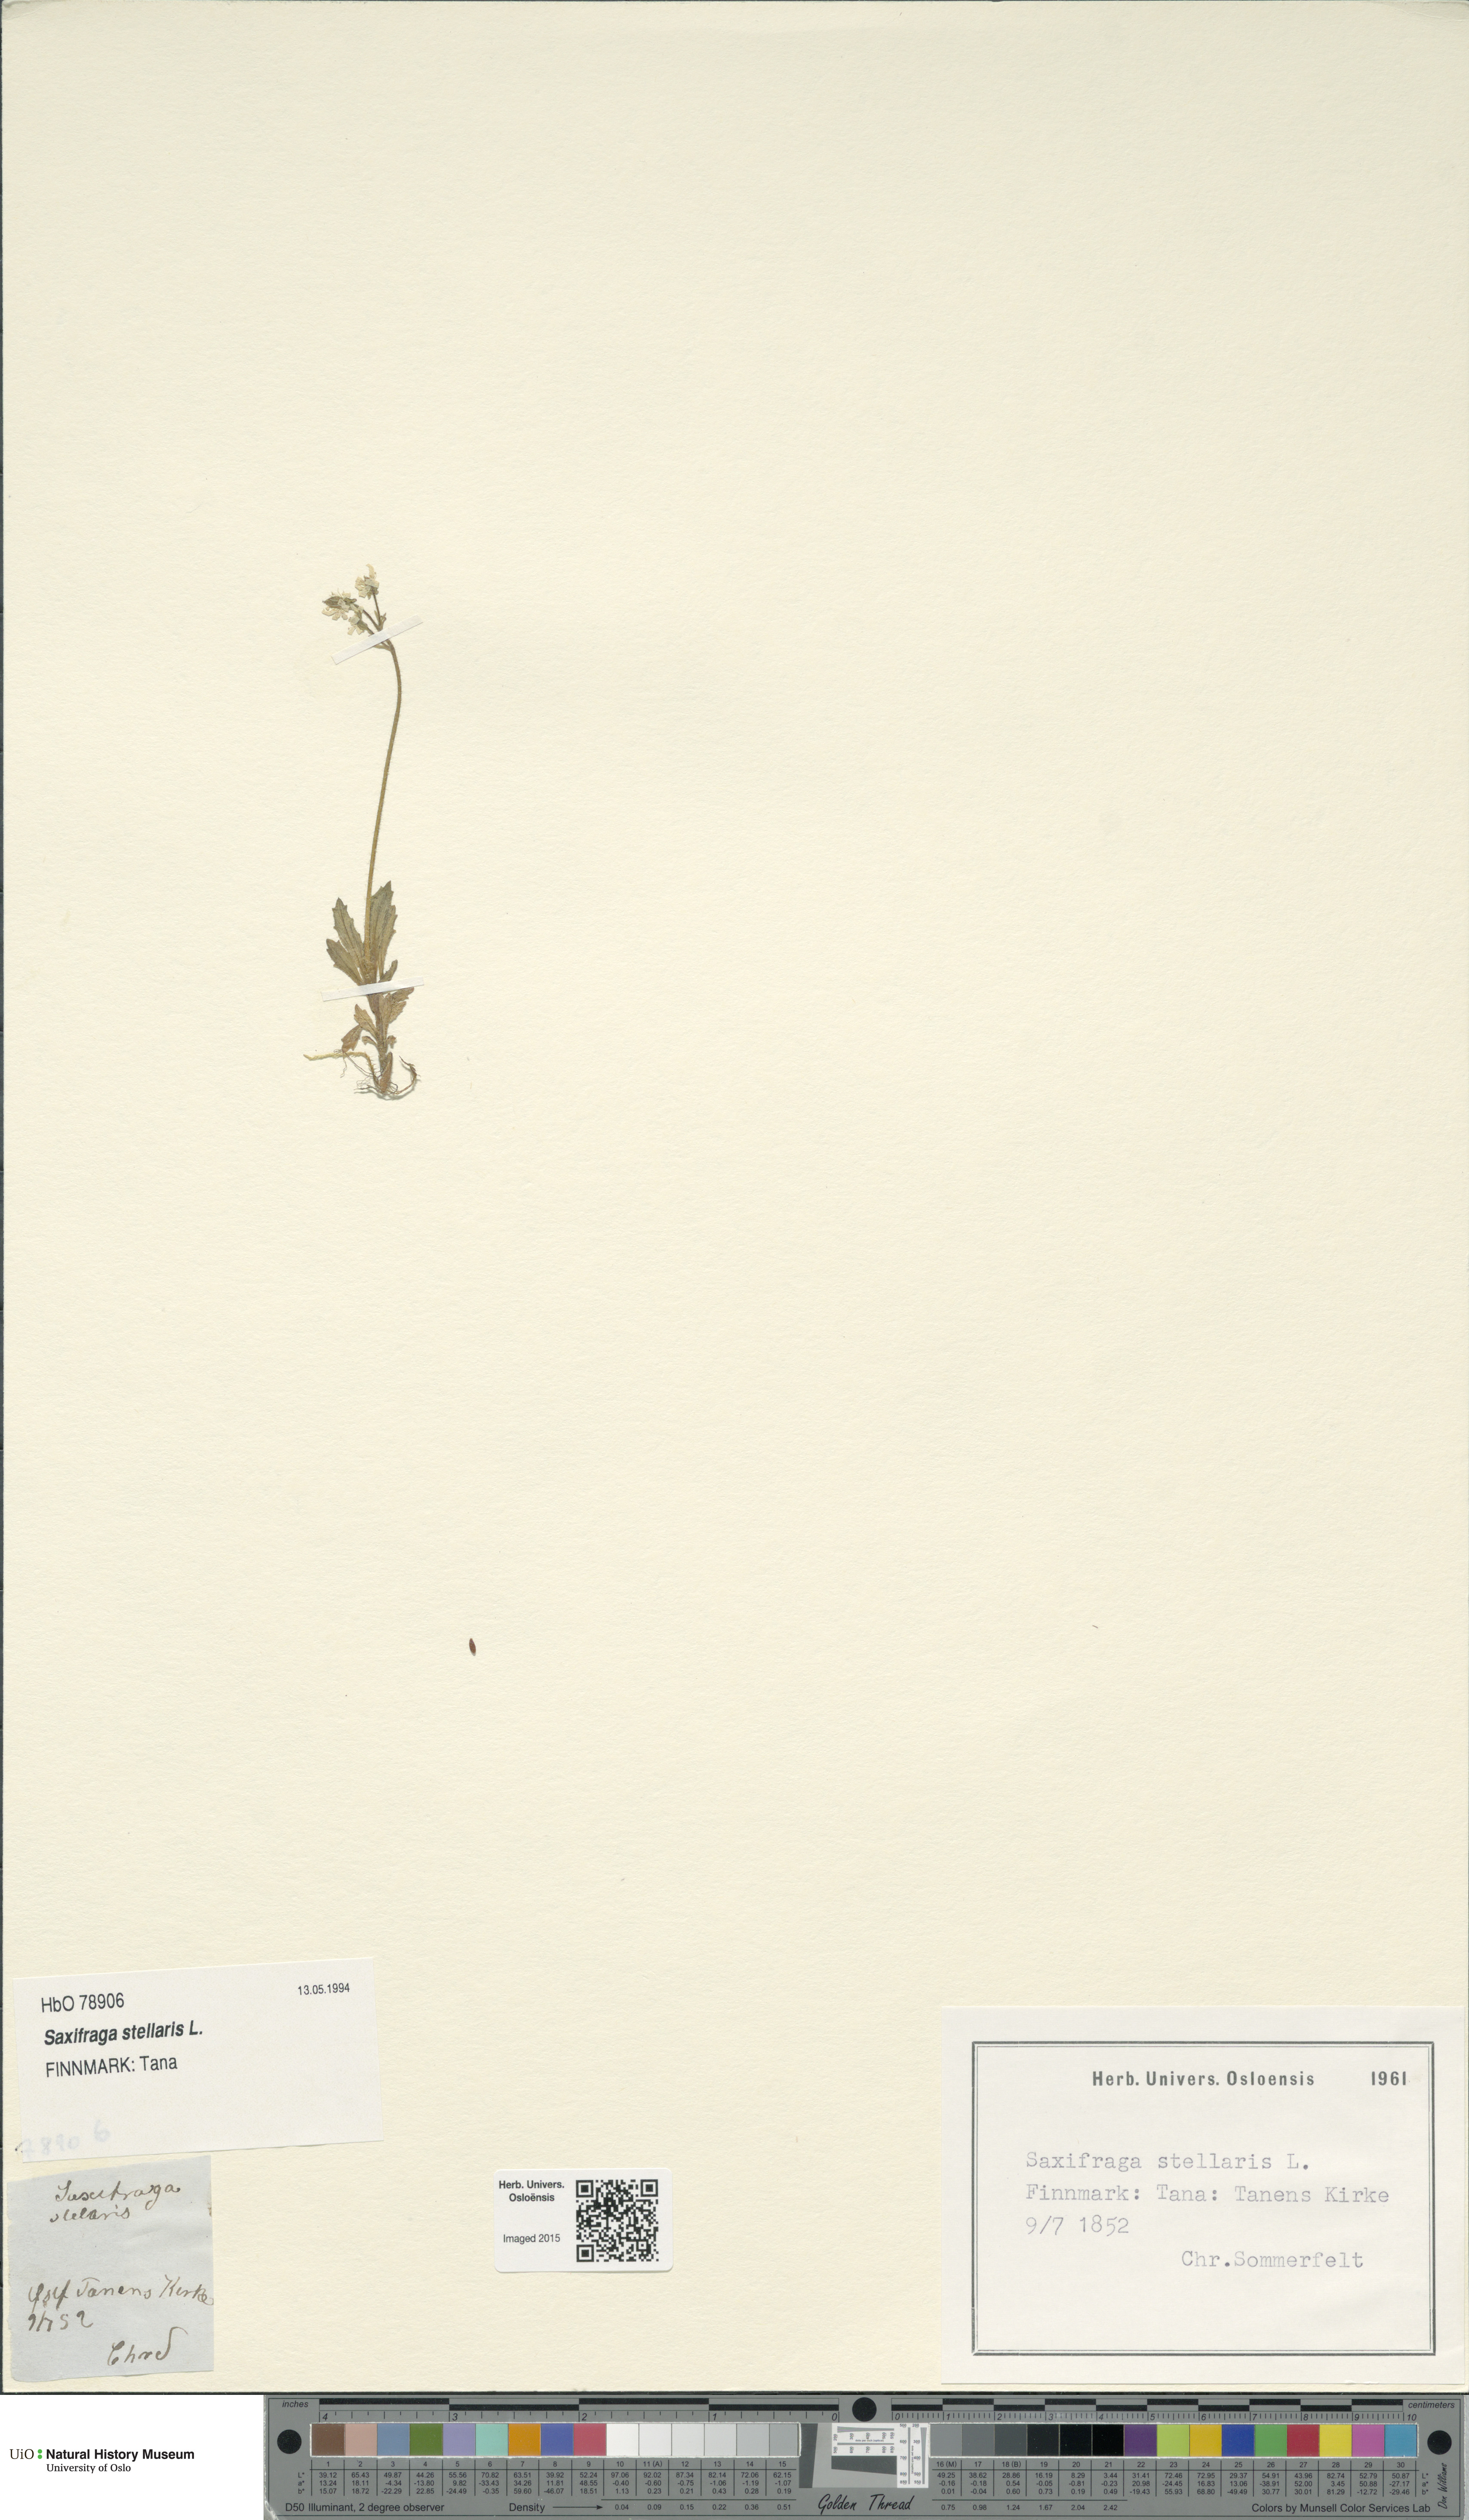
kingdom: Plantae
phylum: Tracheophyta
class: Magnoliopsida
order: Saxifragales
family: Saxifragaceae
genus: Micranthes
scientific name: Micranthes stellaris
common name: Starry saxifrage
